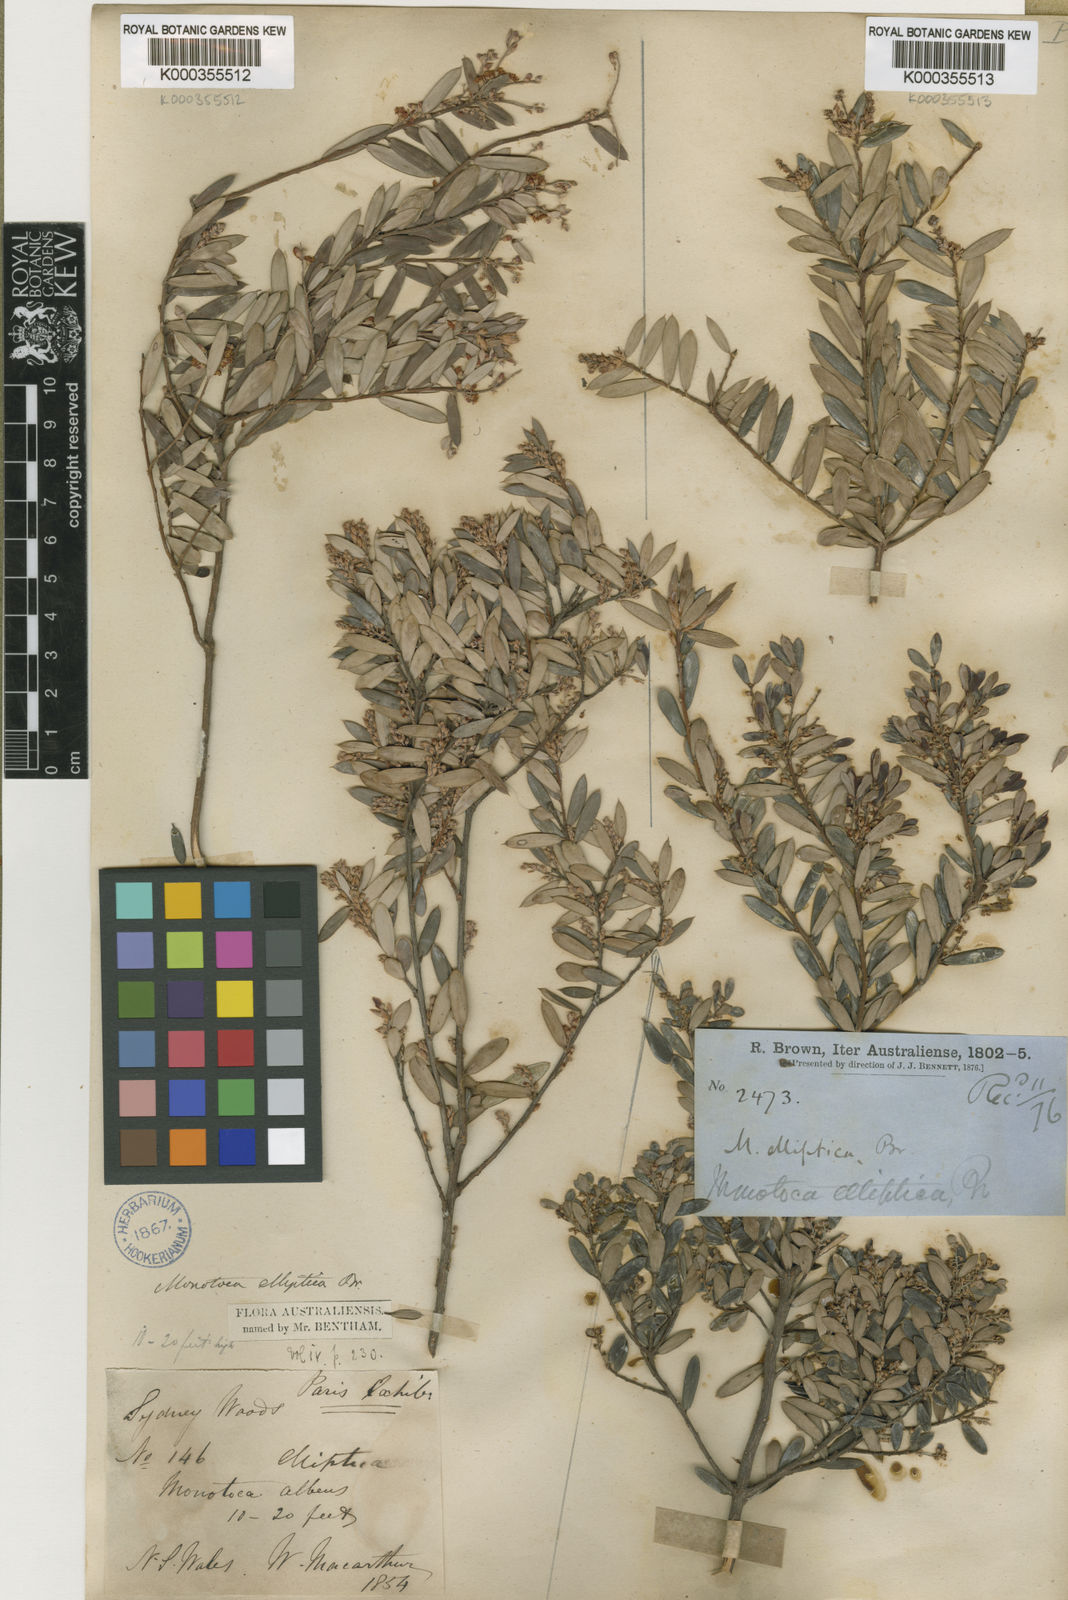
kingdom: Plantae
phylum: Tracheophyta
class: Magnoliopsida
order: Ericales
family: Ericaceae
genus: Monotoca
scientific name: Monotoca elliptica
